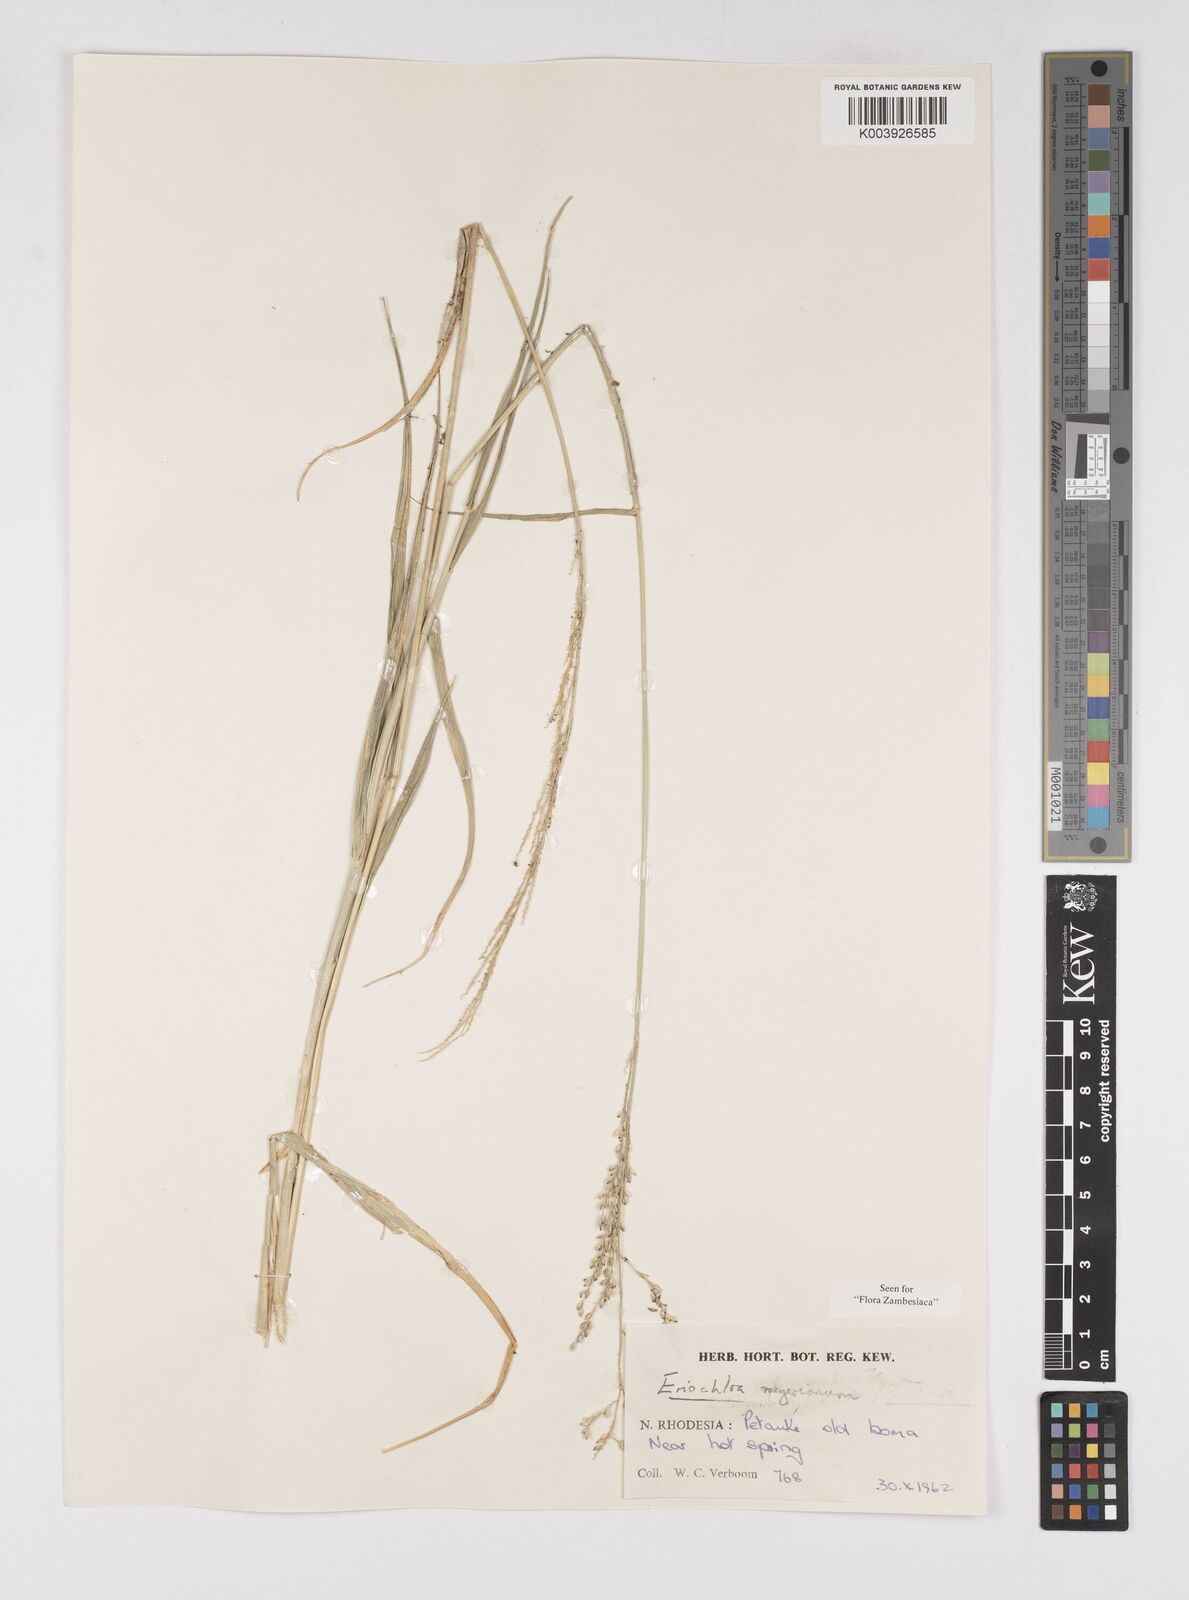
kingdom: Plantae
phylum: Tracheophyta
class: Liliopsida
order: Poales
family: Poaceae
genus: Eriochloa
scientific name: Eriochloa meyeriana
